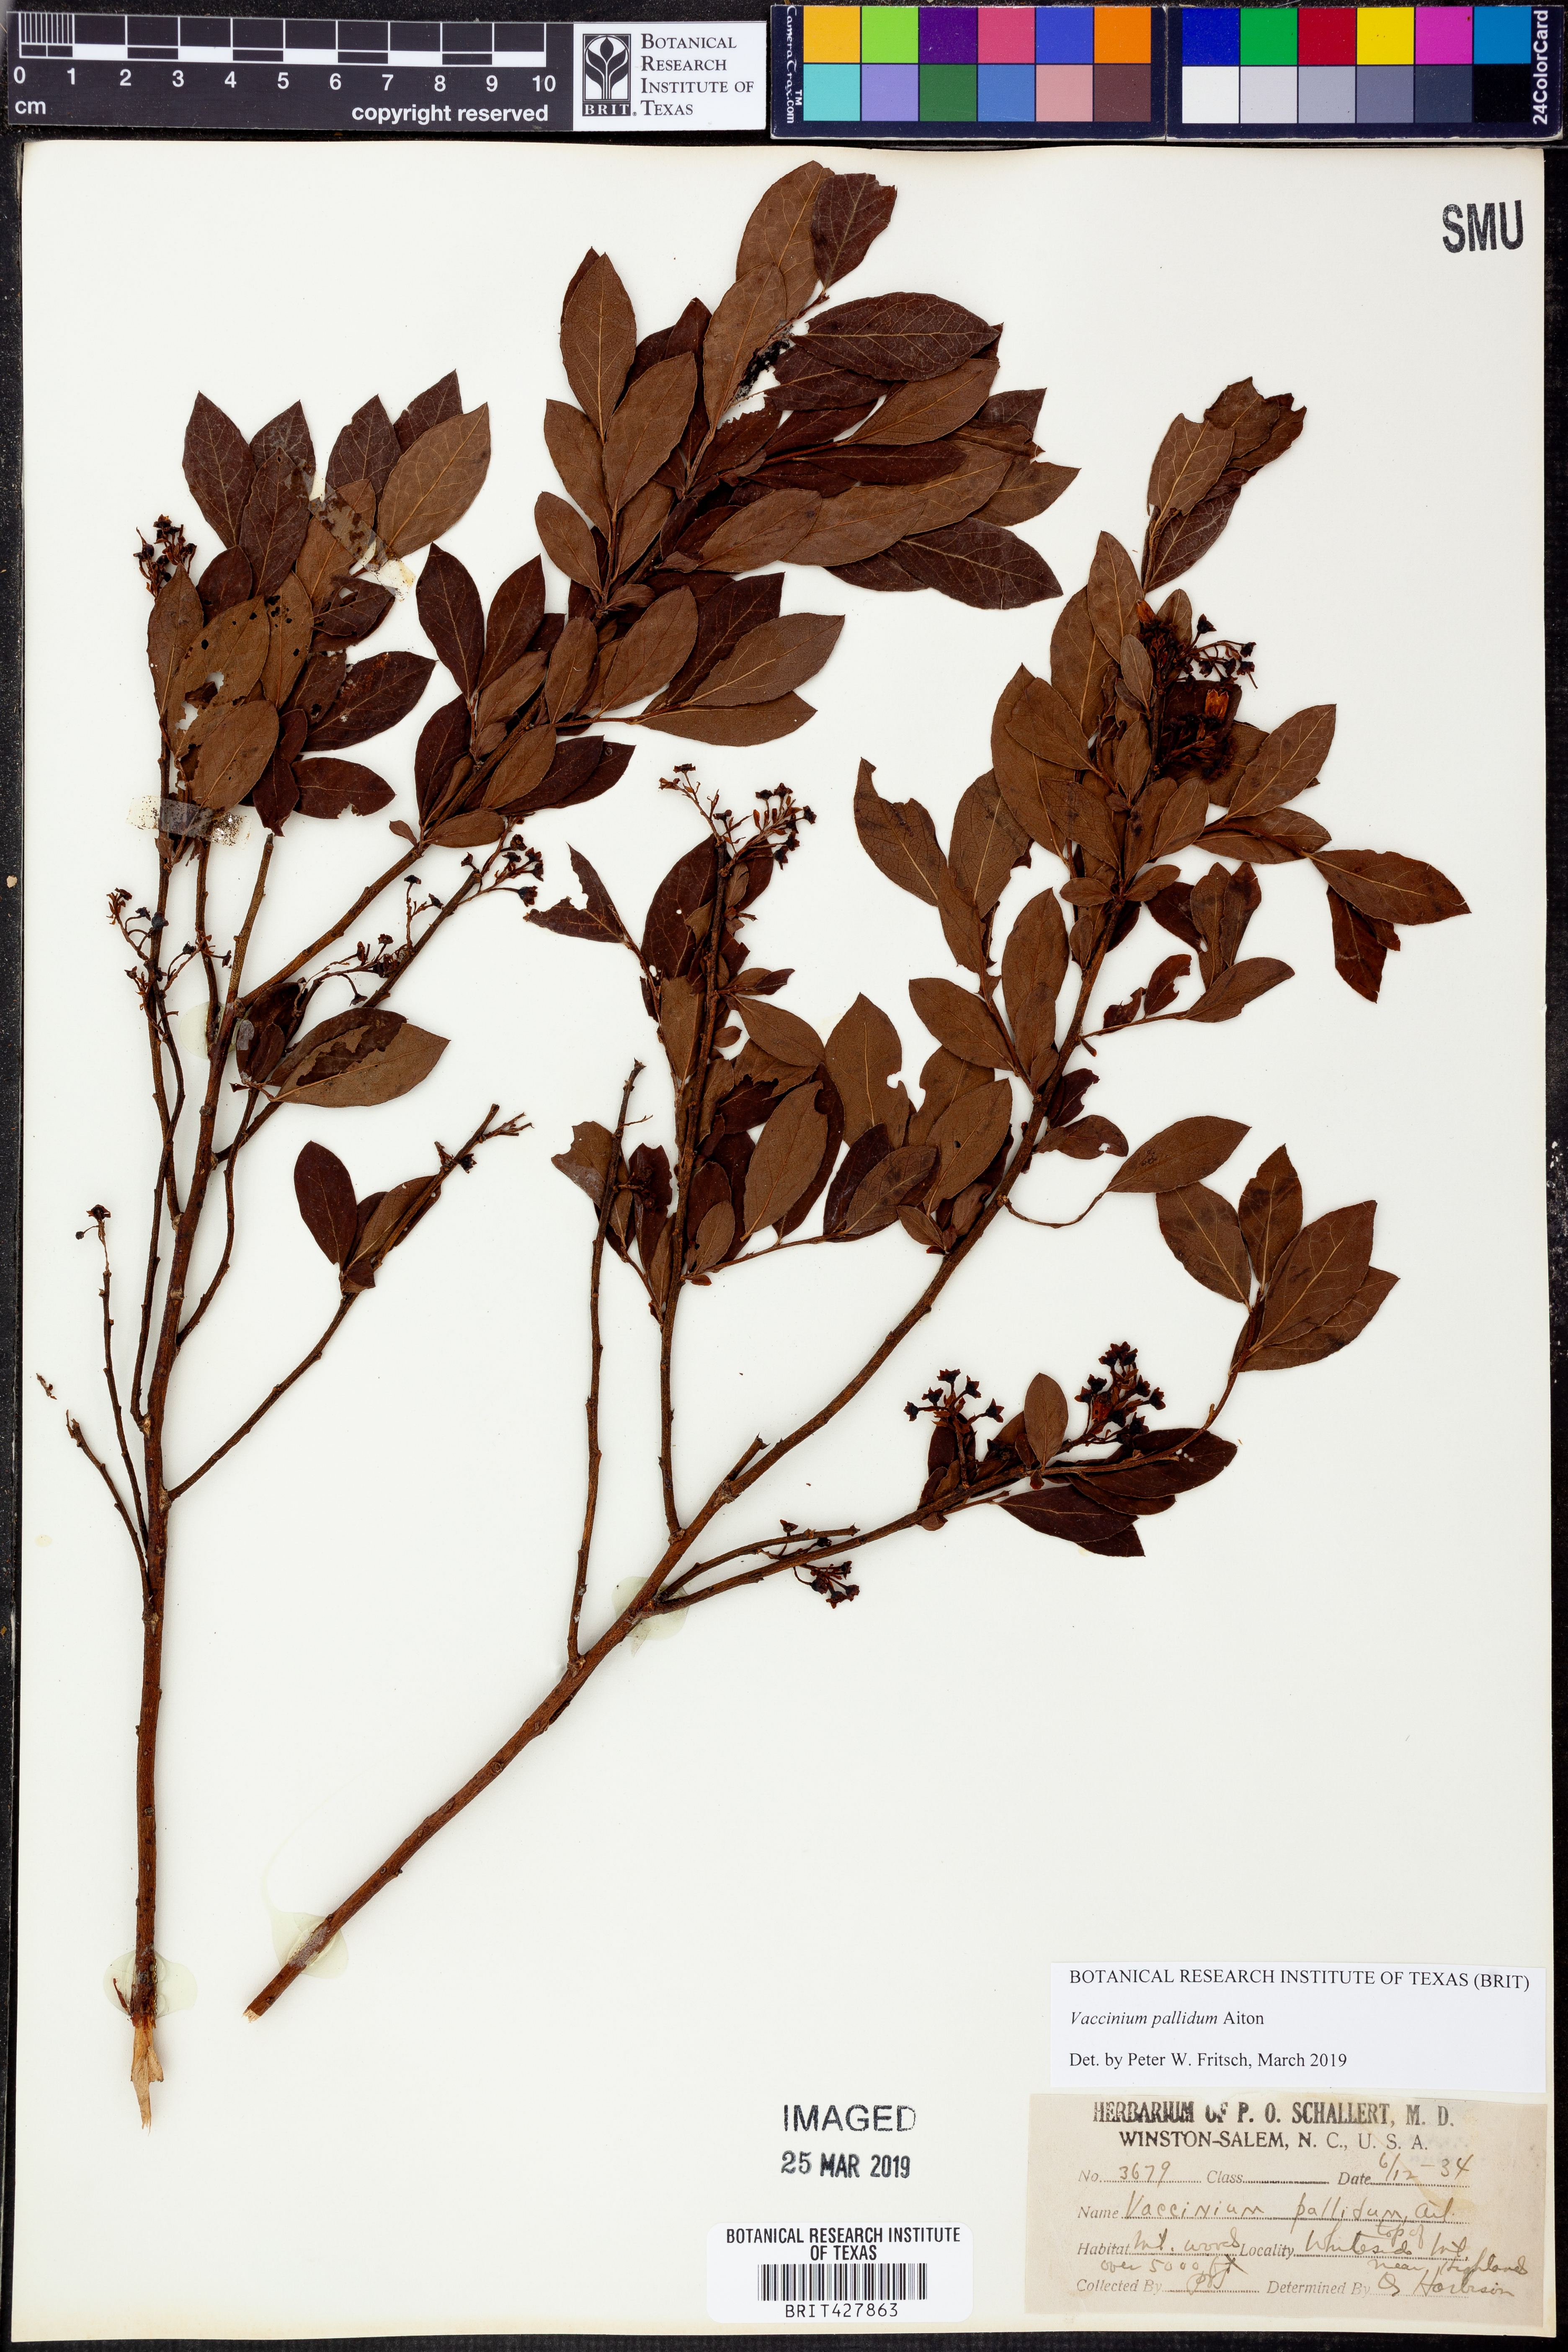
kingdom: Plantae
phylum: Tracheophyta
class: Magnoliopsida
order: Ericales
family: Ericaceae
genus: Vaccinium
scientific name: Vaccinium pallidum
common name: Blue ridge blueberry
